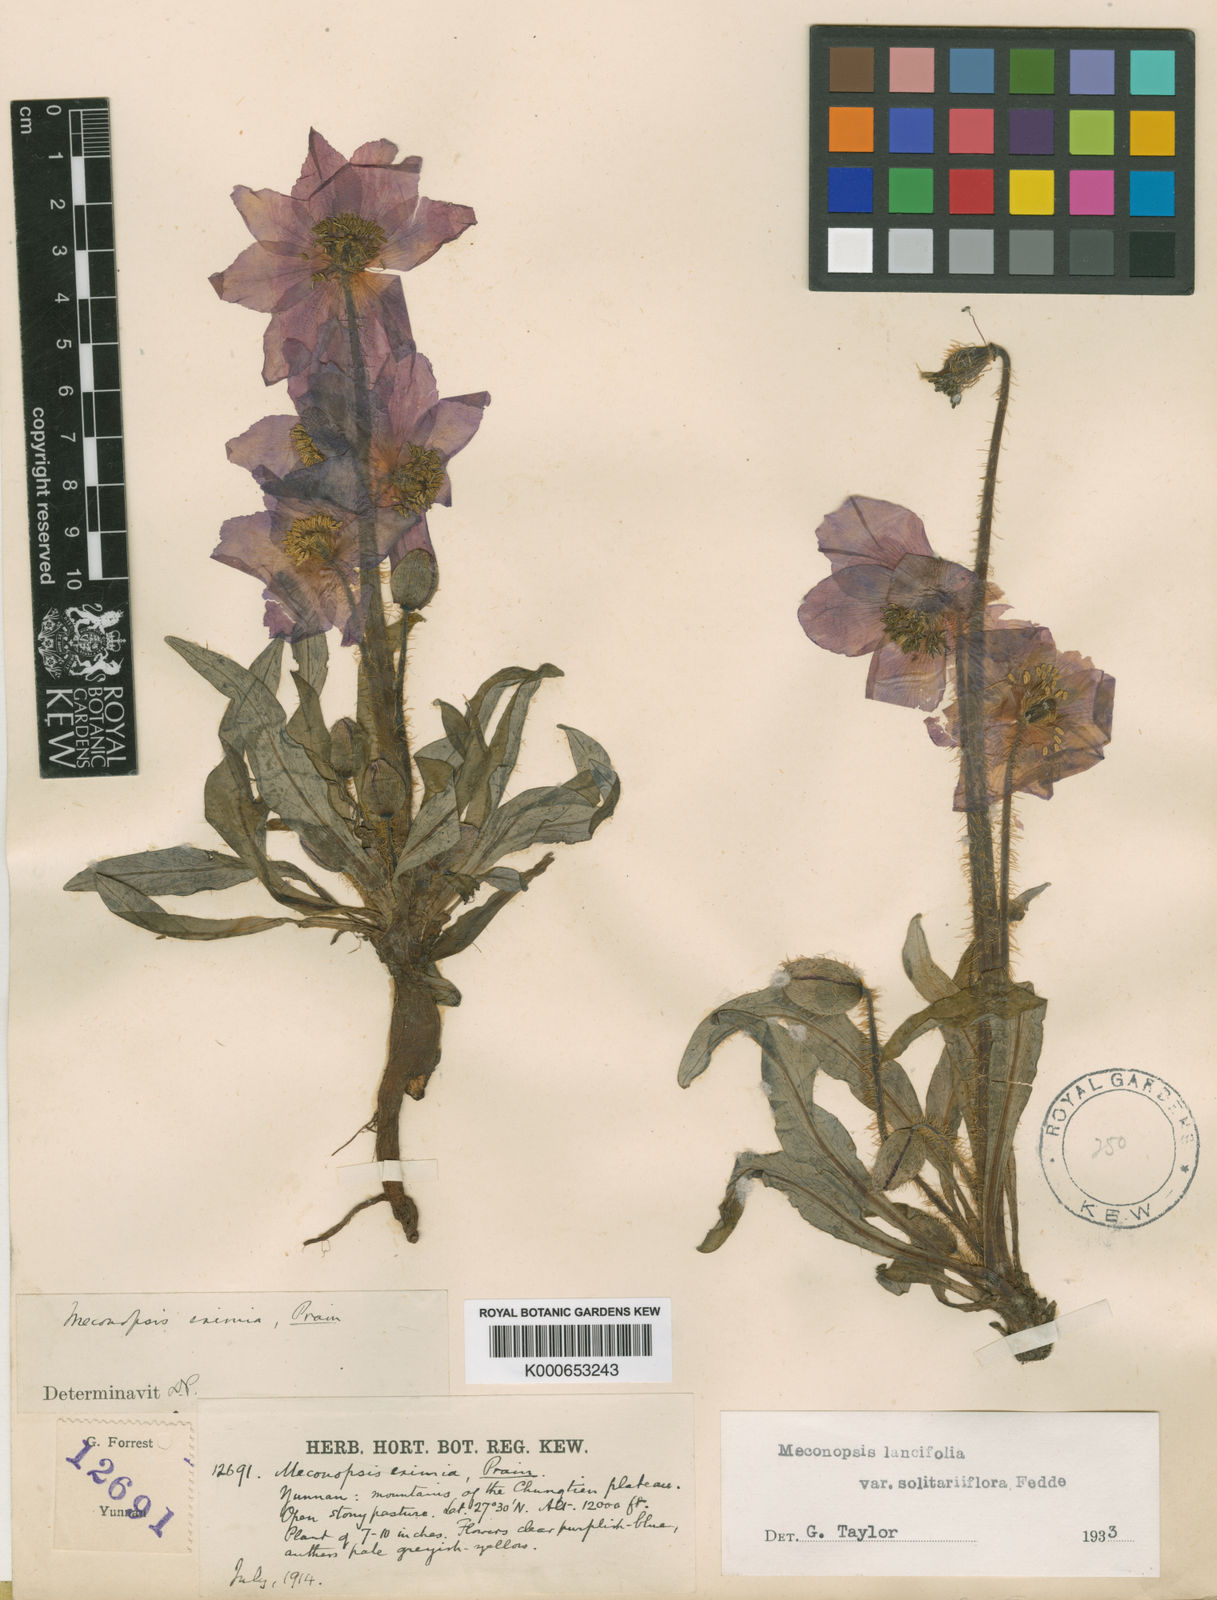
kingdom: Plantae
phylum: Tracheophyta
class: Magnoliopsida
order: Ranunculales
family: Papaveraceae
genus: Meconopsis
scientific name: Meconopsis lancifolia
